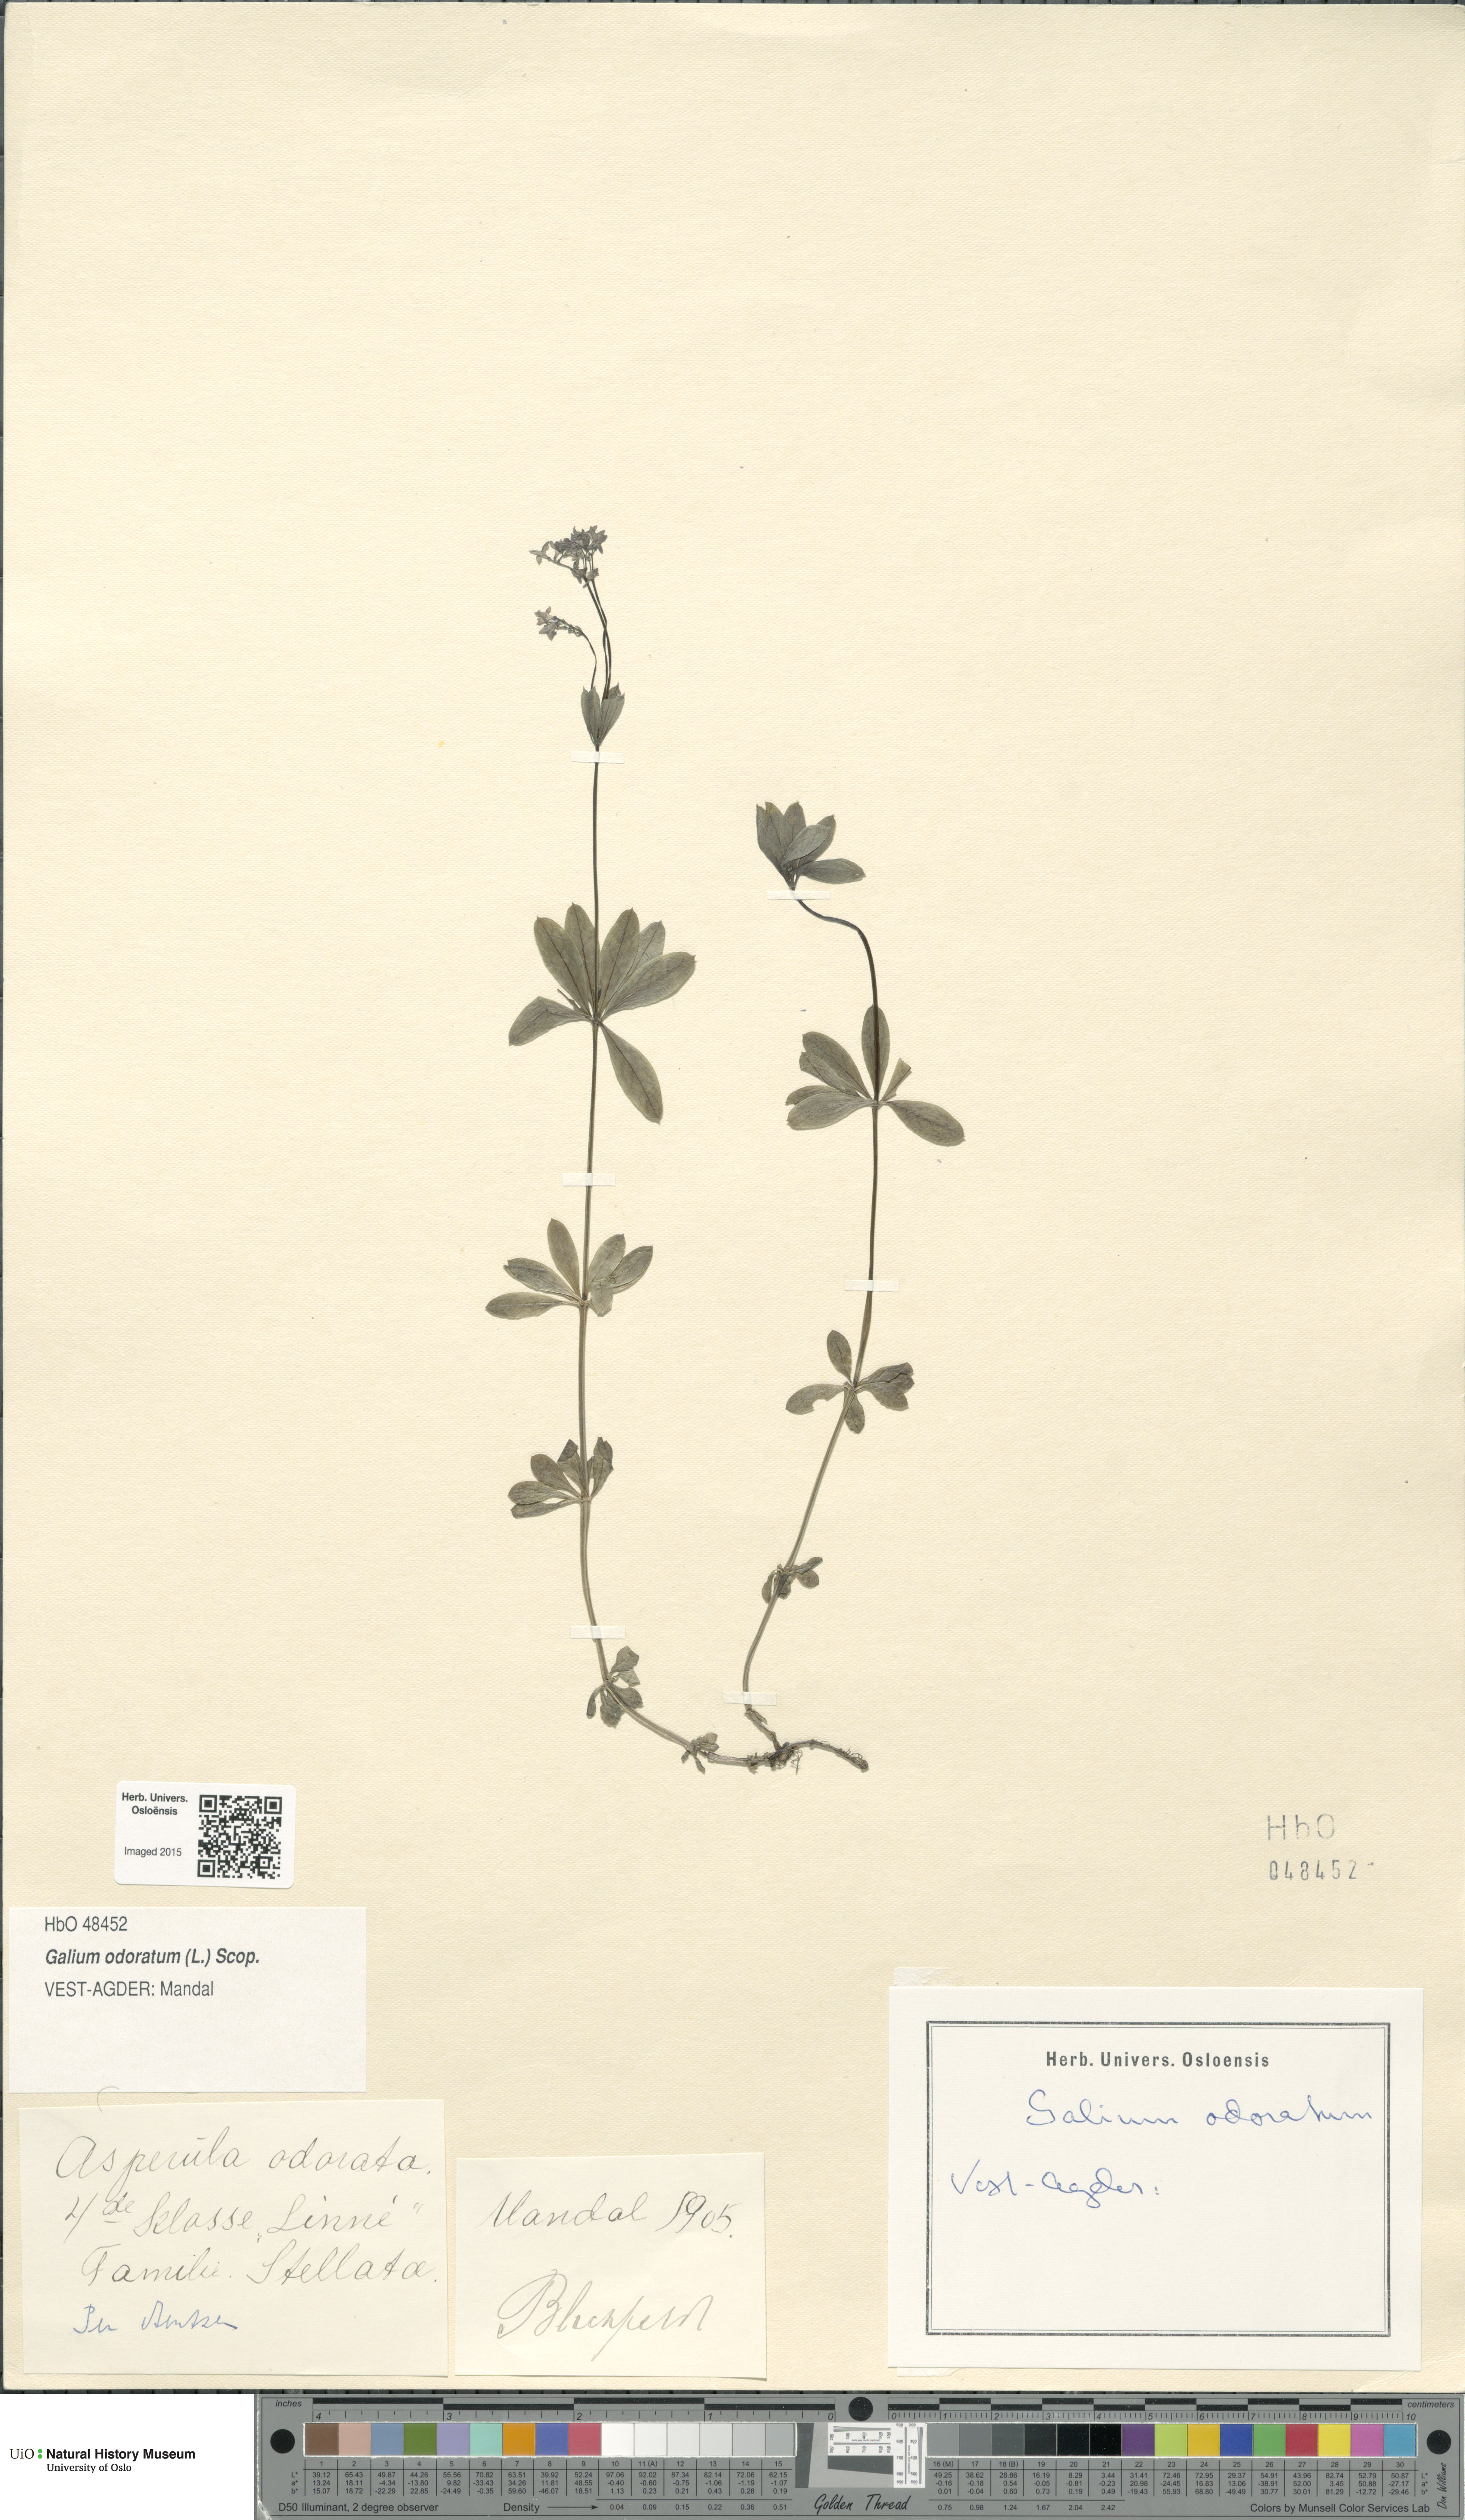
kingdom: Plantae
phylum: Tracheophyta
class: Magnoliopsida
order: Gentianales
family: Rubiaceae
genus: Galium
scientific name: Galium odoratum
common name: Sweet woodruff
